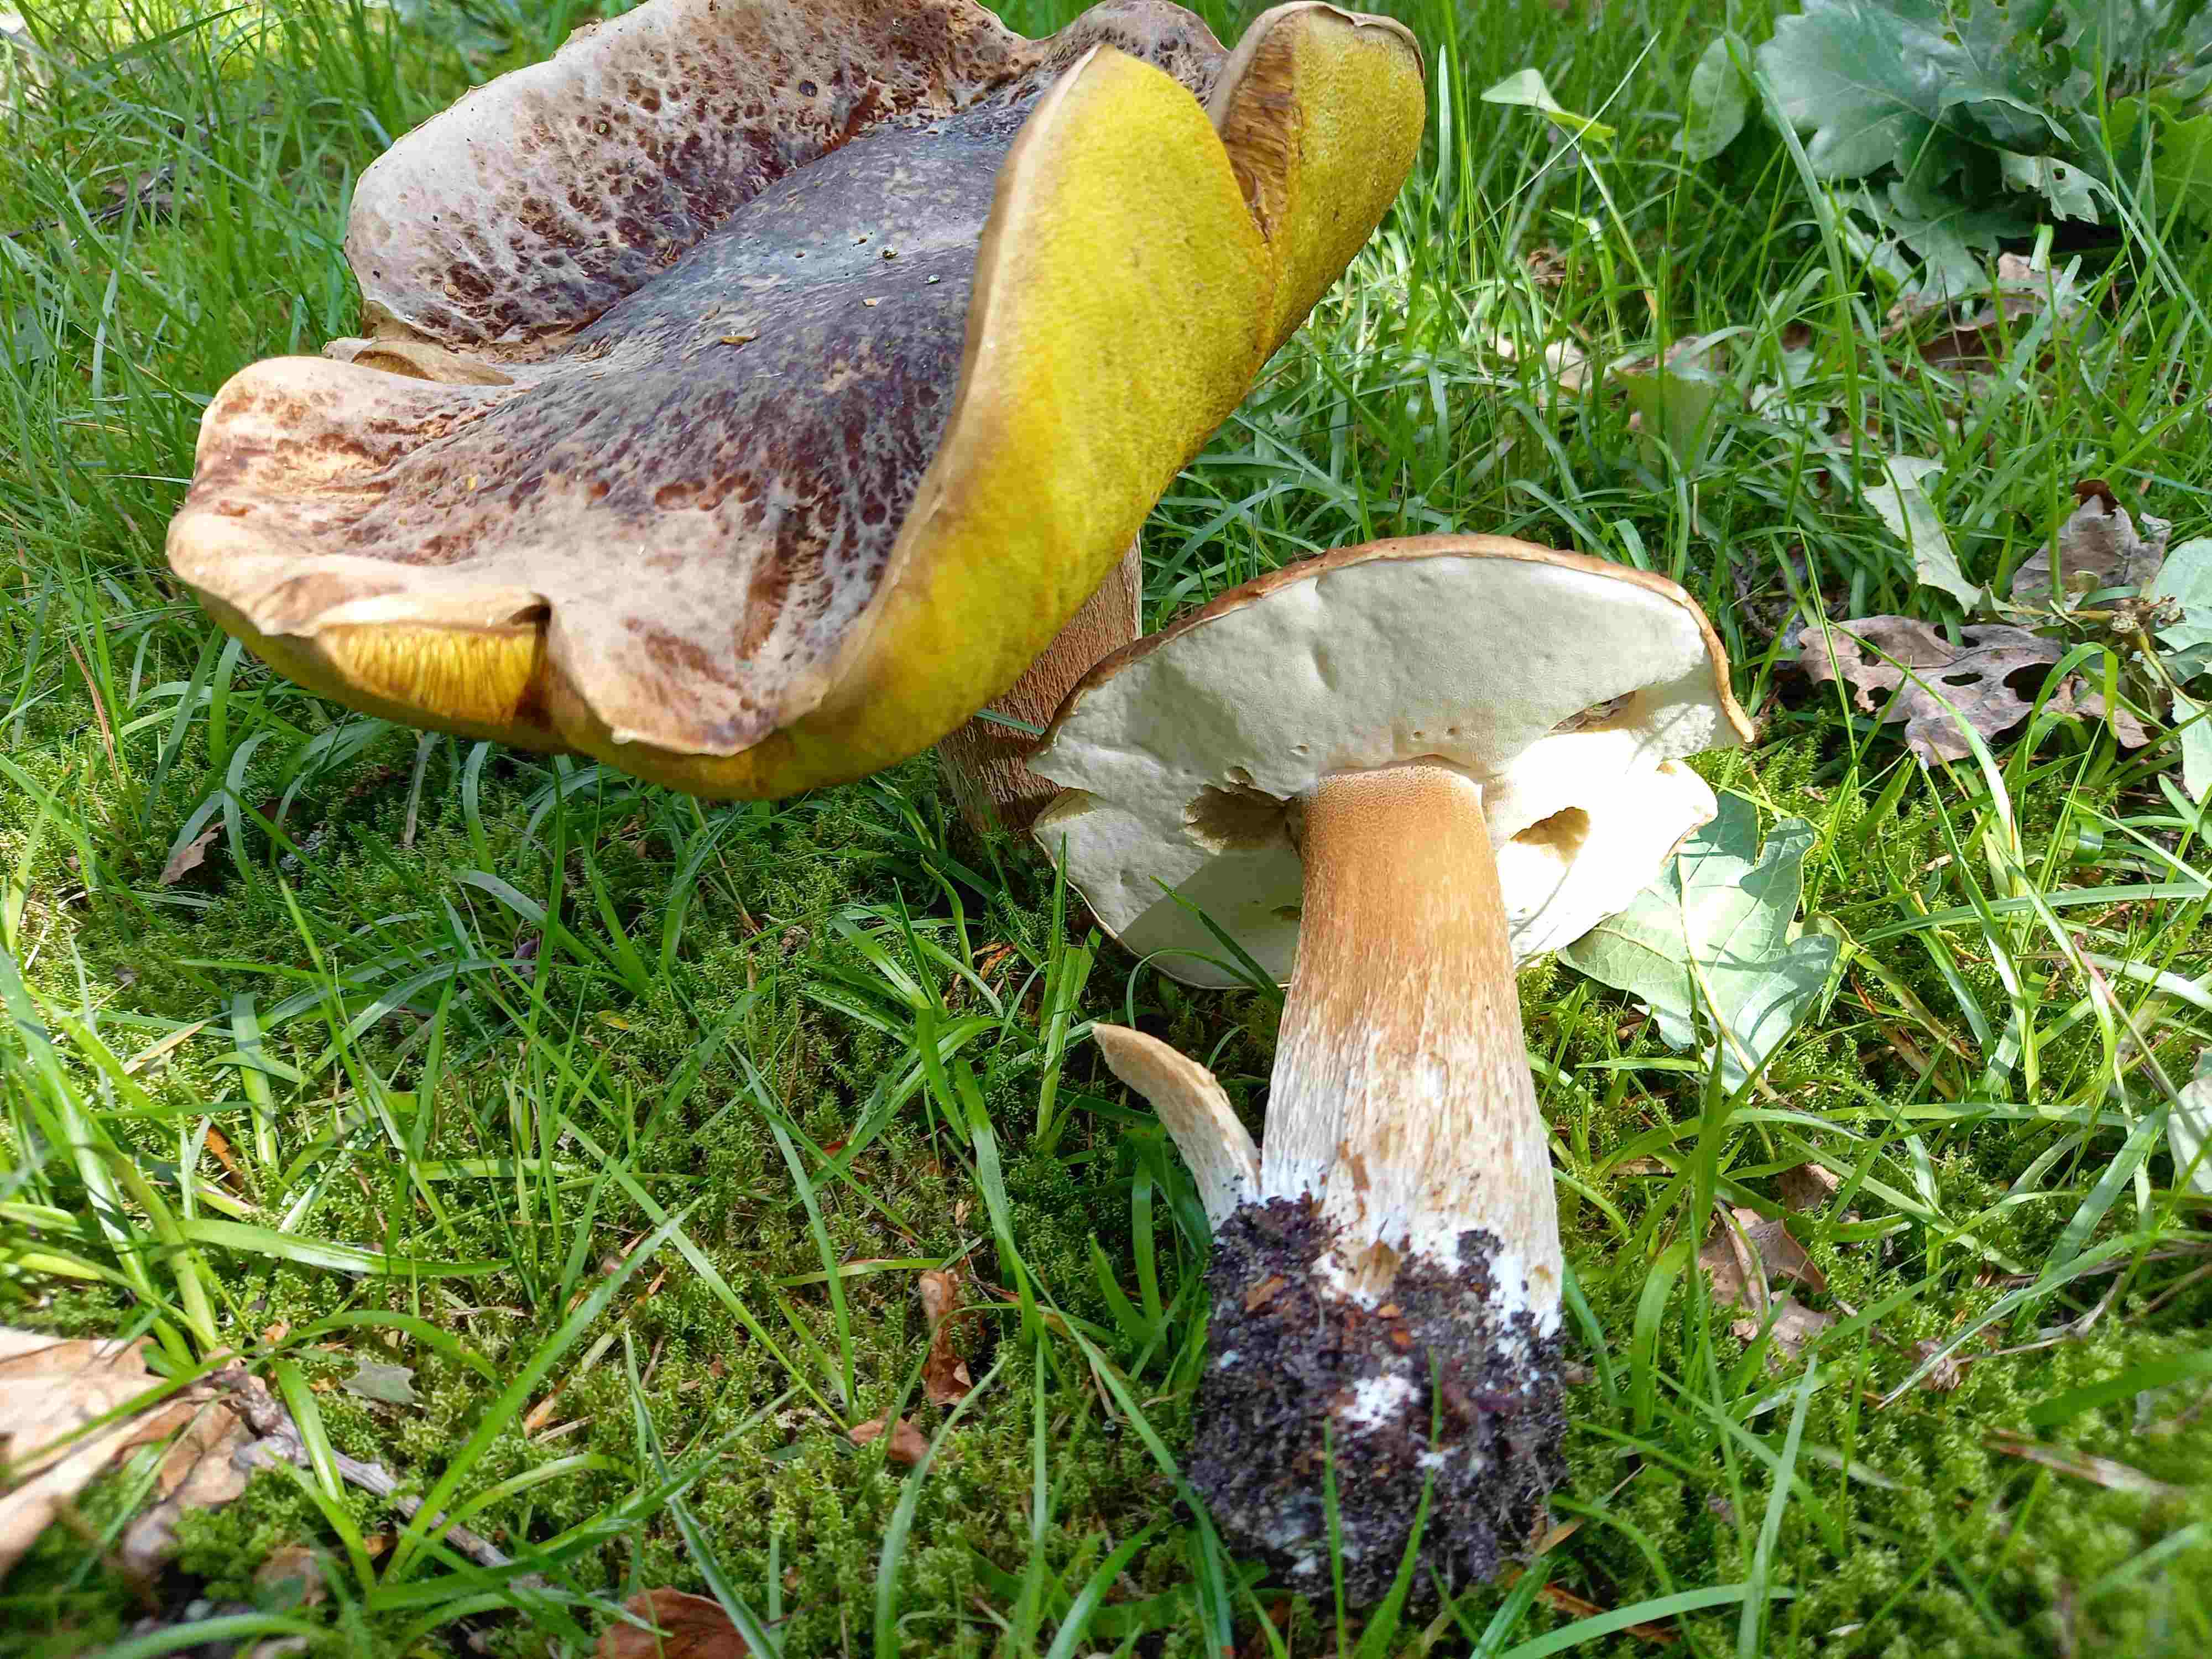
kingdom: Fungi
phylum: Basidiomycota
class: Agaricomycetes
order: Boletales
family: Boletaceae
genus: Boletus
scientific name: Boletus edulis
